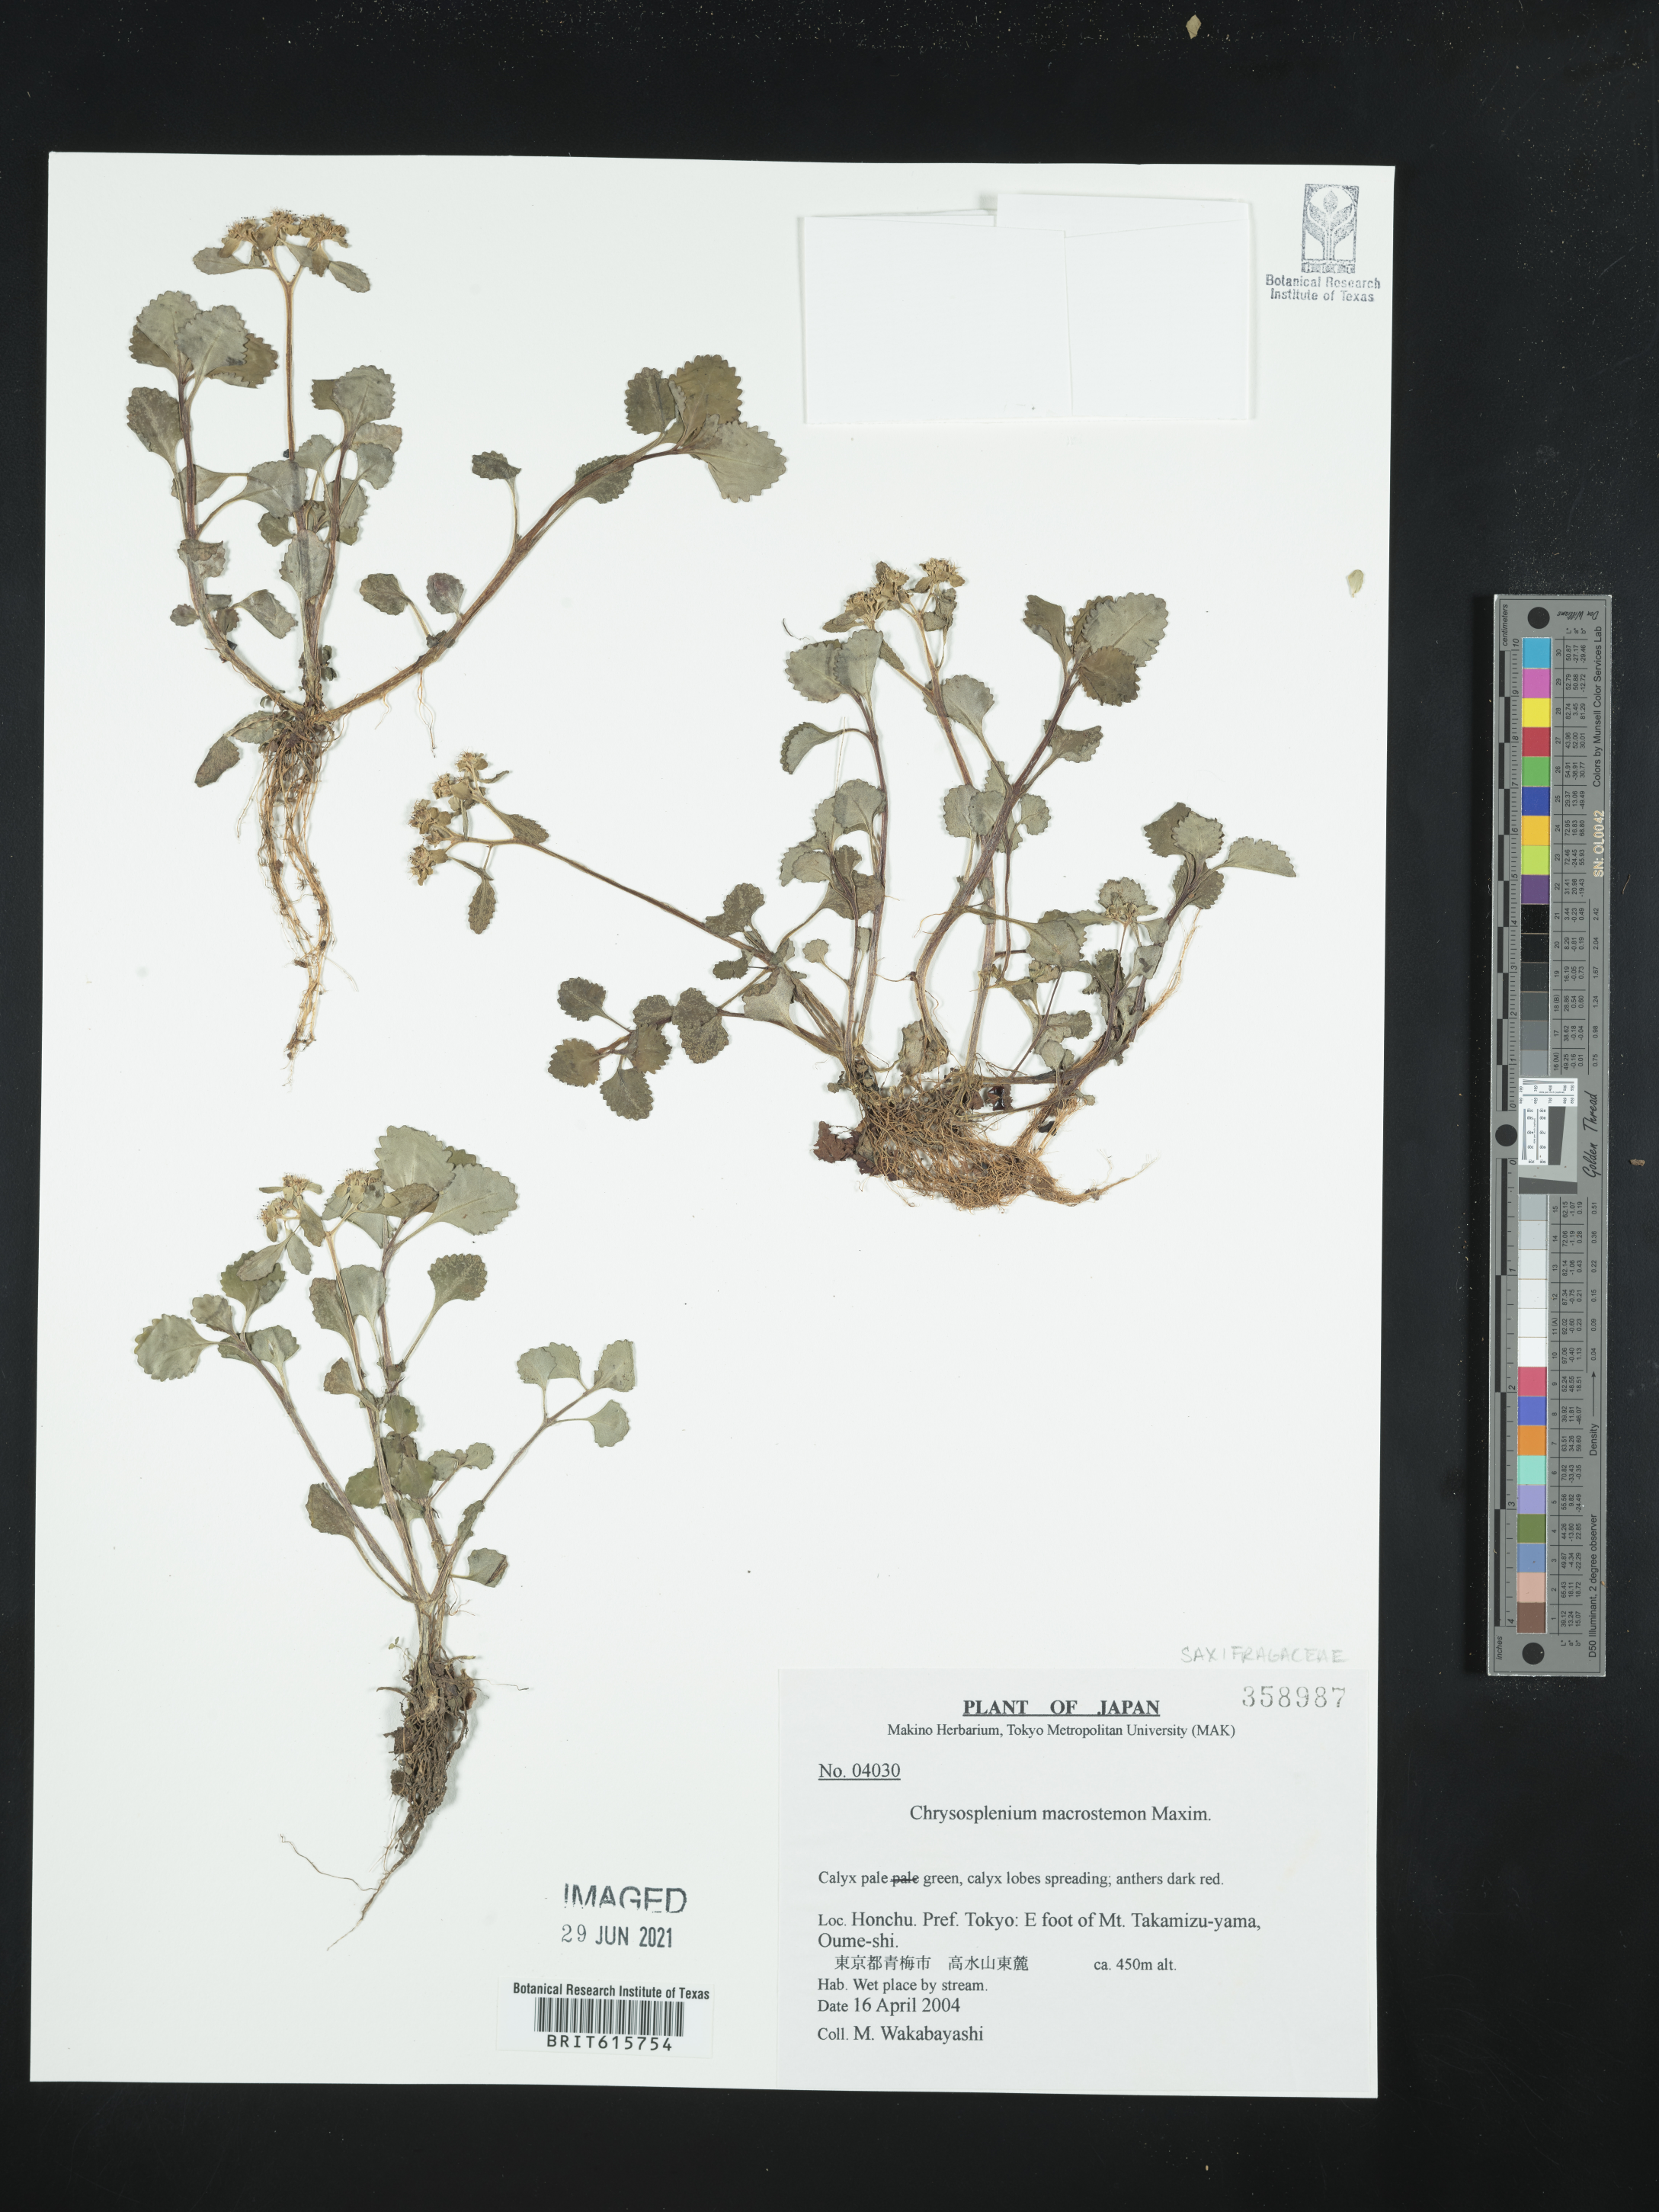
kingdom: Plantae
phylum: Tracheophyta
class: Magnoliopsida
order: Saxifragales
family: Saxifragaceae
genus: Chrysosplenium
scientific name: Chrysosplenium macrostemon
